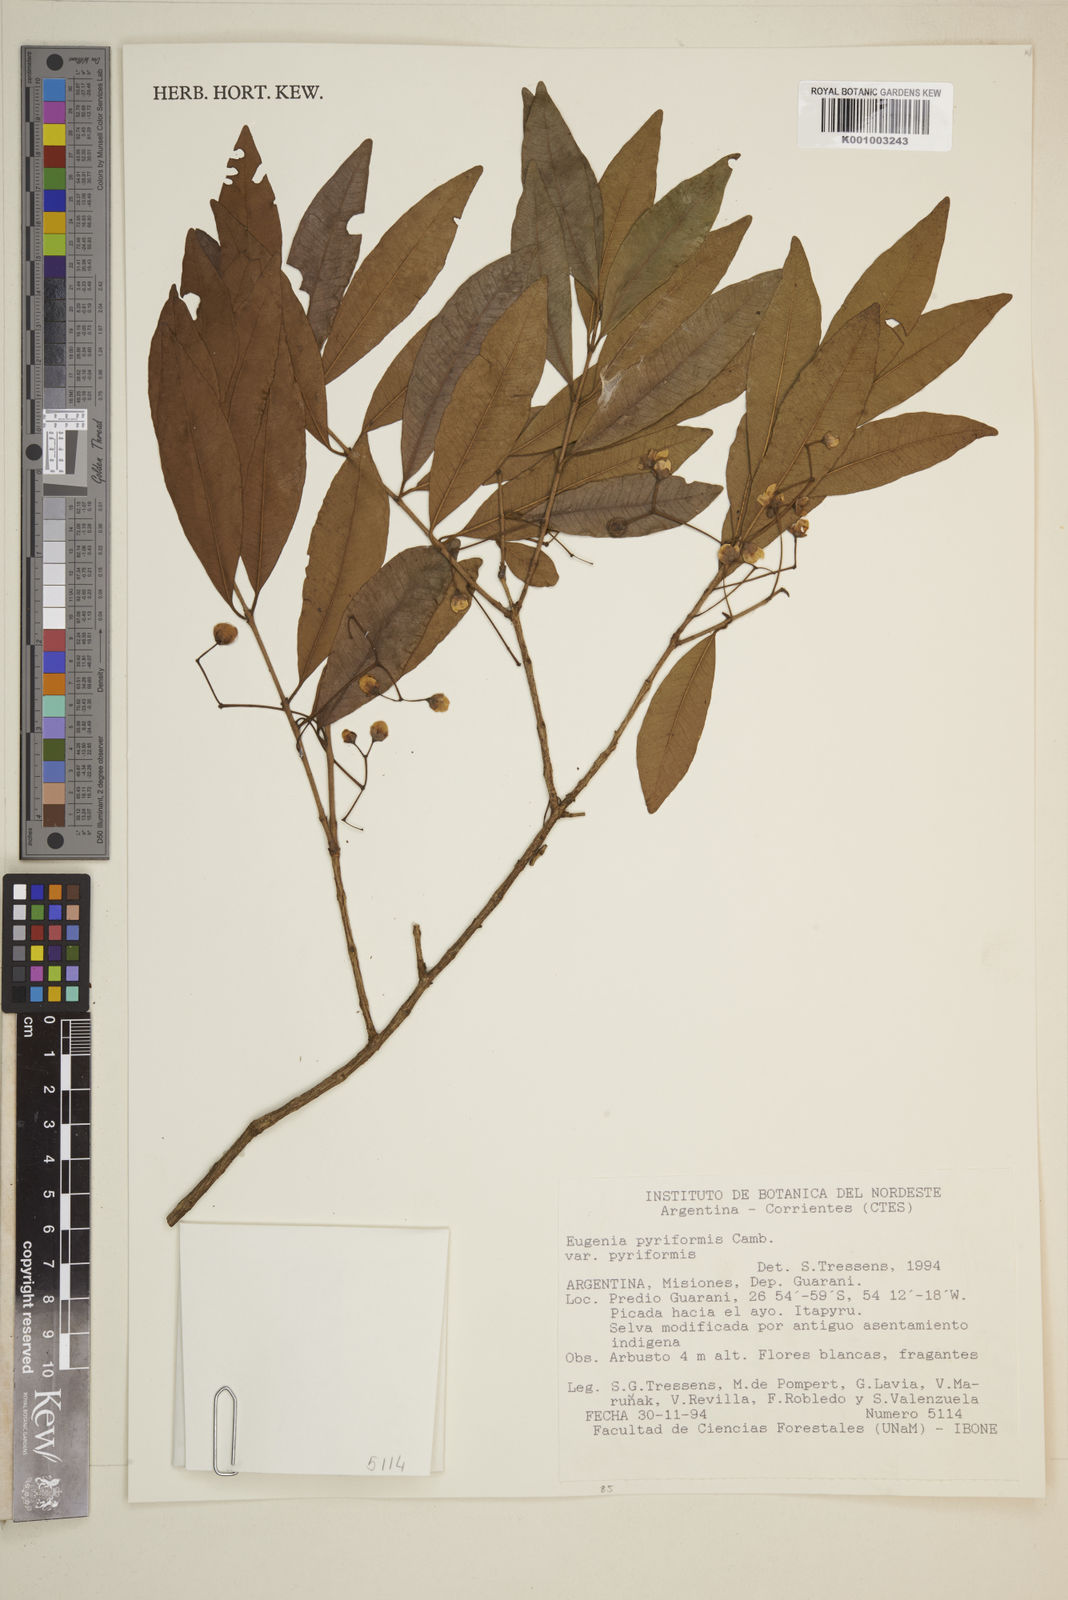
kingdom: Plantae
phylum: Tracheophyta
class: Magnoliopsida
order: Myrtales
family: Myrtaceae
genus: Eugenia
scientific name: Eugenia pyriformis
